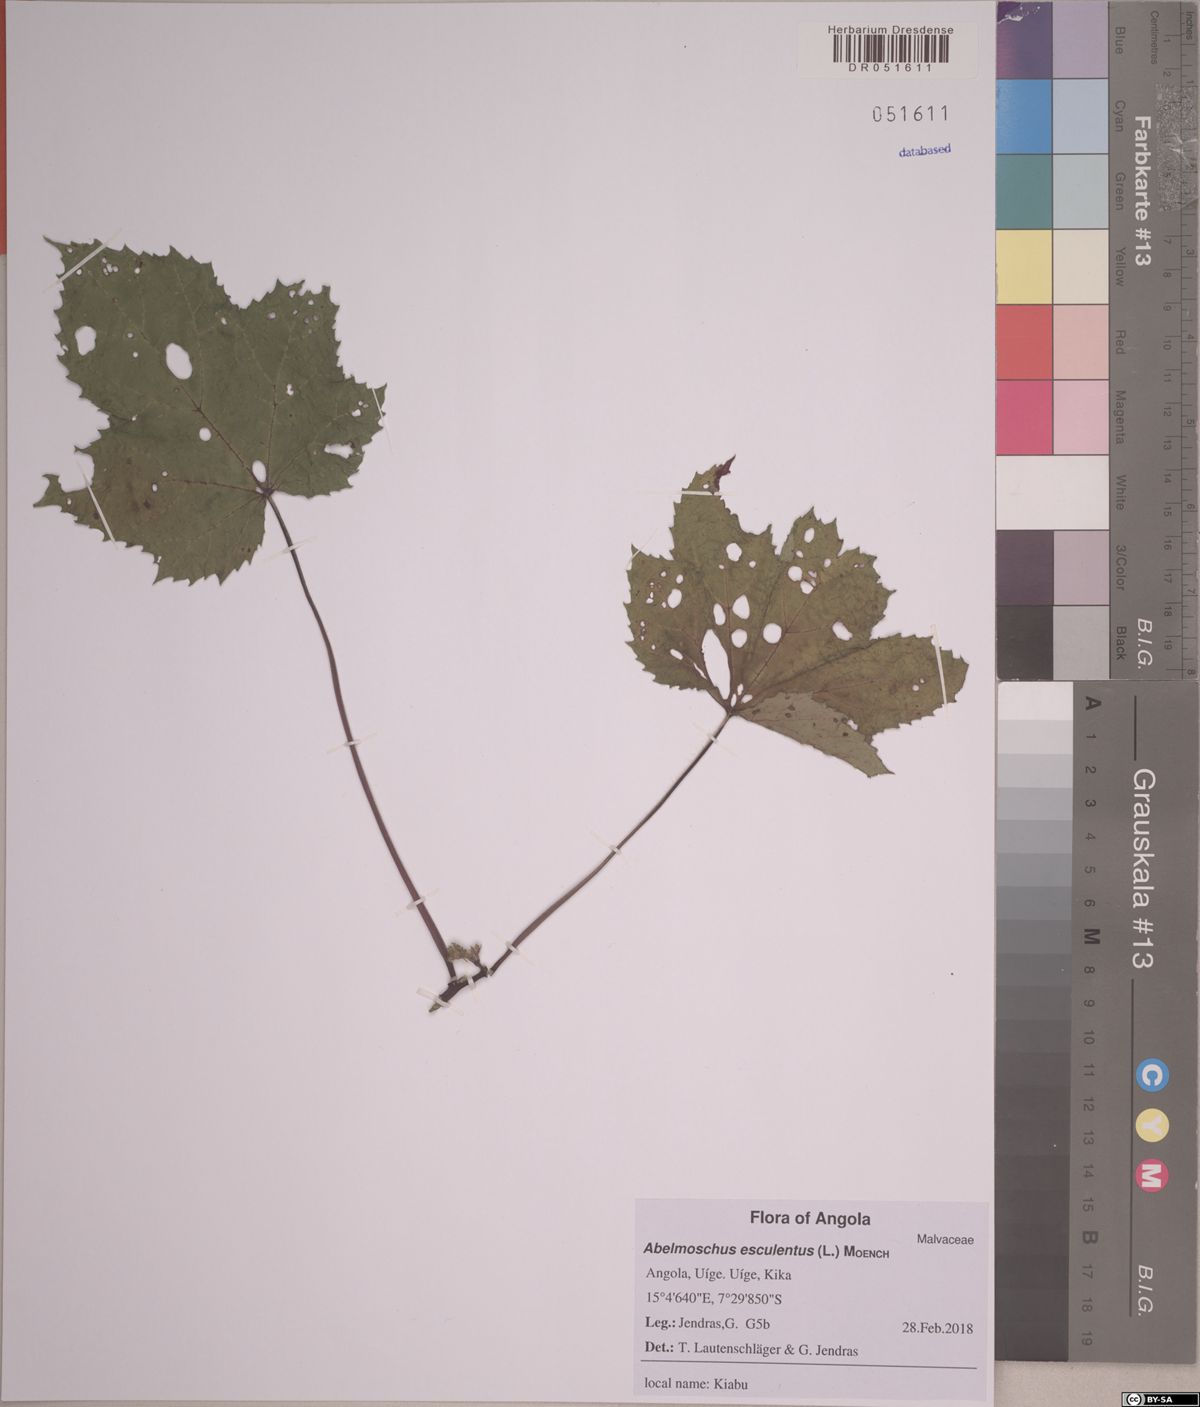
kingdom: Plantae
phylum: Tracheophyta
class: Magnoliopsida
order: Malvales
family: Malvaceae
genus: Abelmoschus
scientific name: Abelmoschus esculentus
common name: Okra
